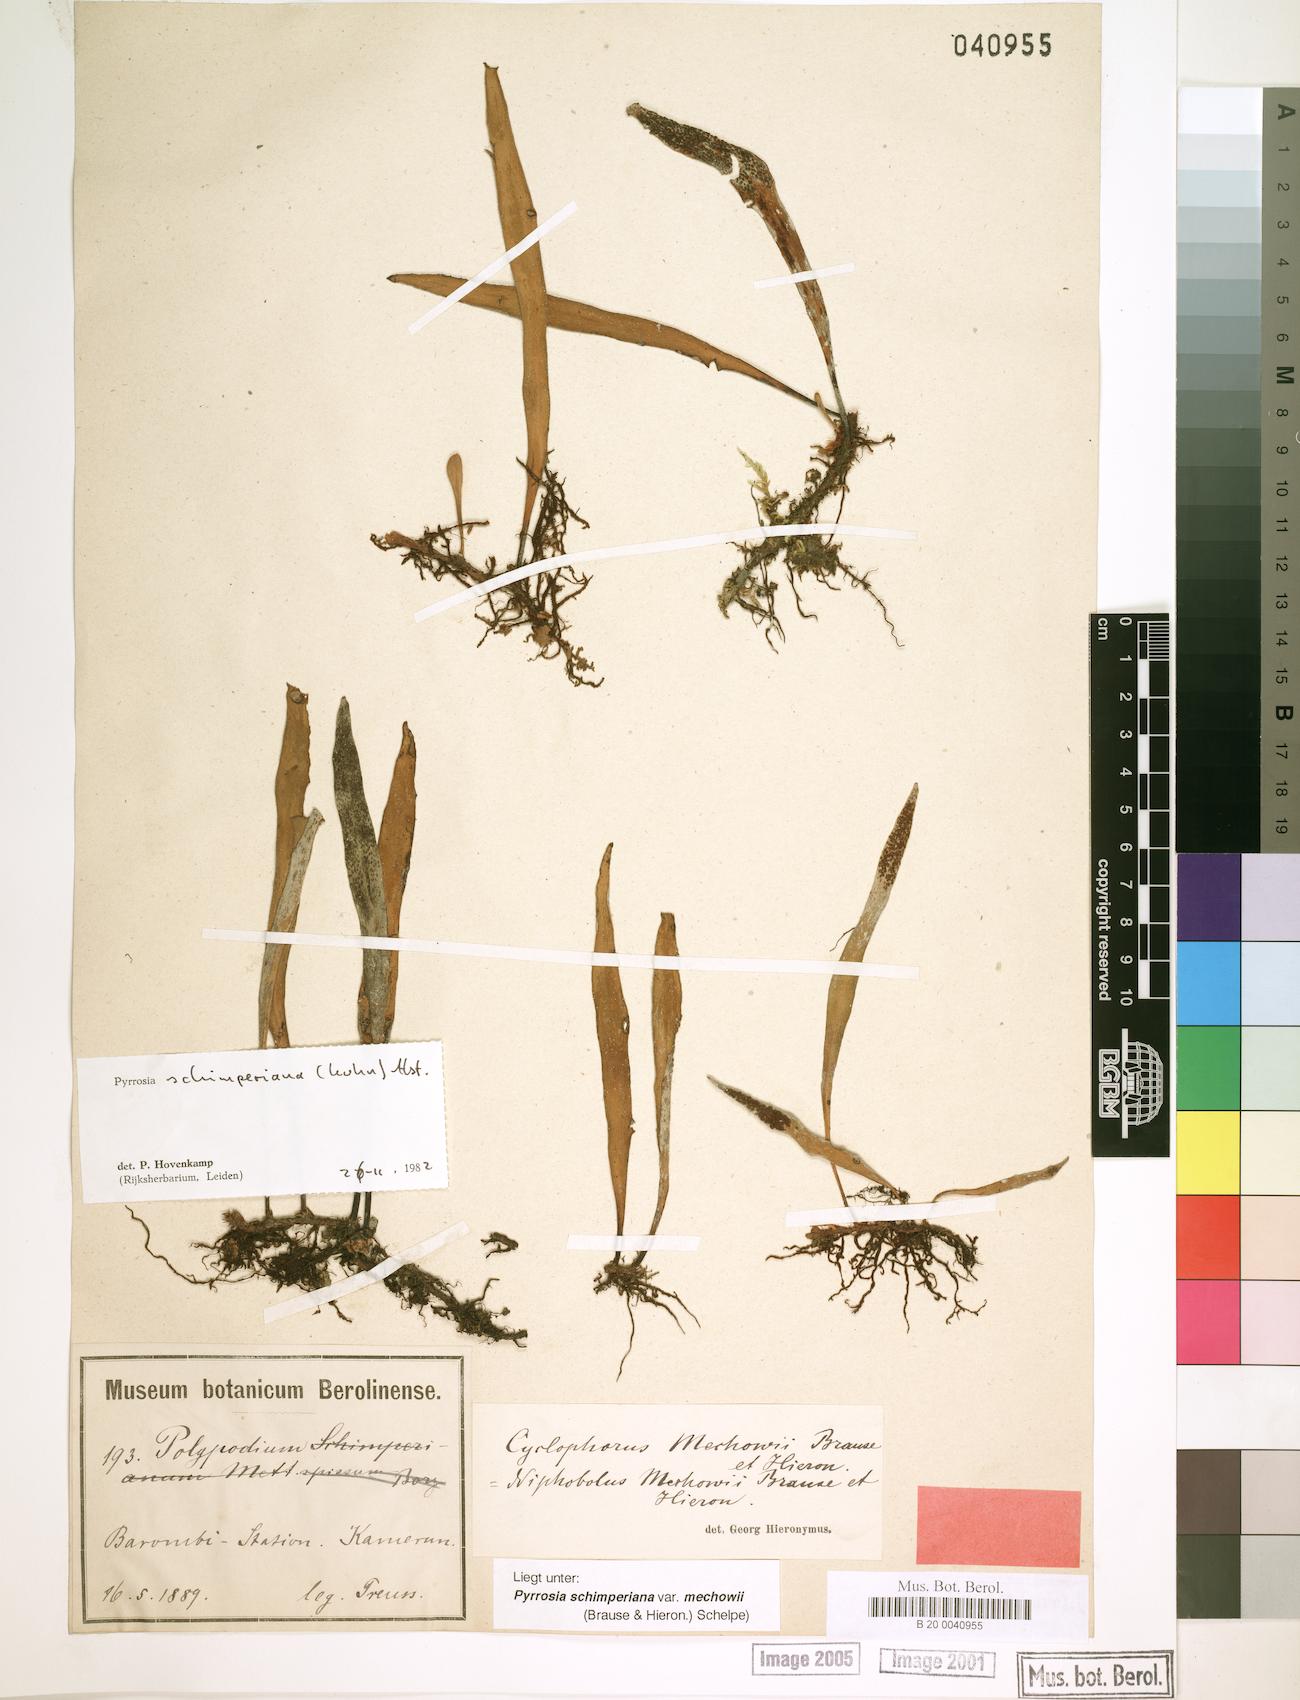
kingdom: Plantae
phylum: Tracheophyta
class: Polypodiopsida
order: Polypodiales
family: Polypodiaceae
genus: Hovenkampia
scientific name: Hovenkampia schimperiana
